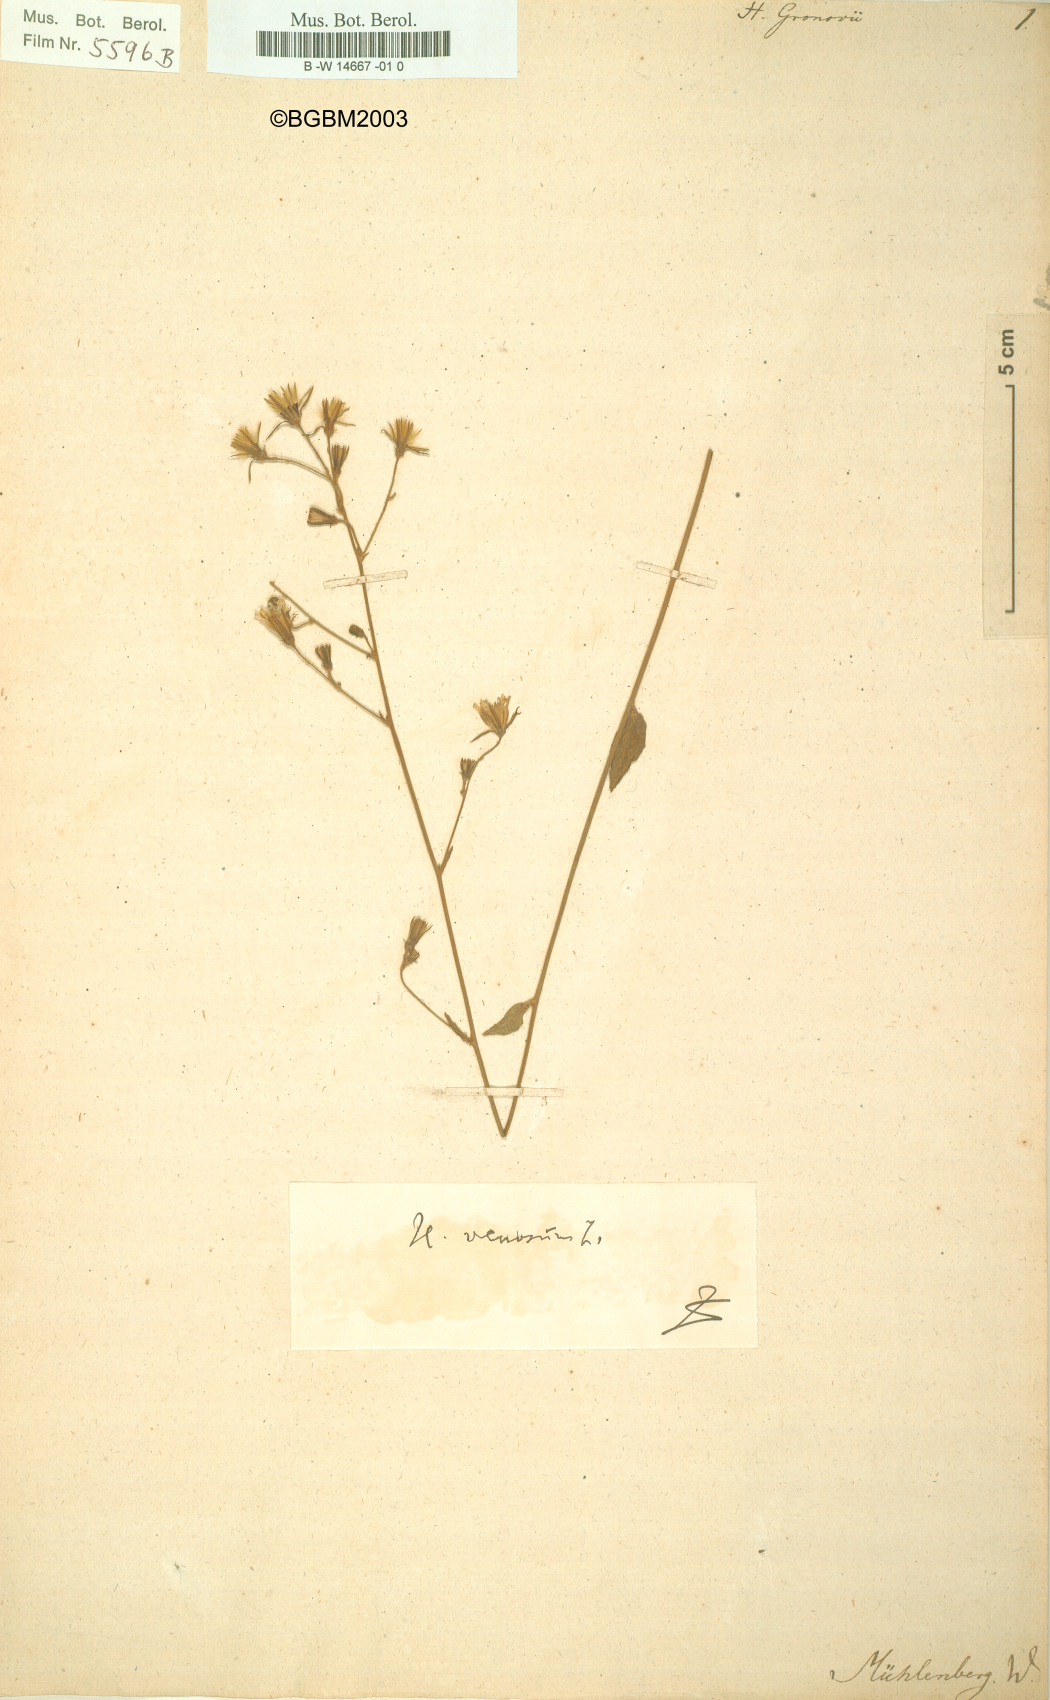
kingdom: Plantae
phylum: Tracheophyta
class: Magnoliopsida
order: Asterales
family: Asteraceae
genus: Hieracium
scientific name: Hieracium gronovii
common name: Beaked hawkweed
